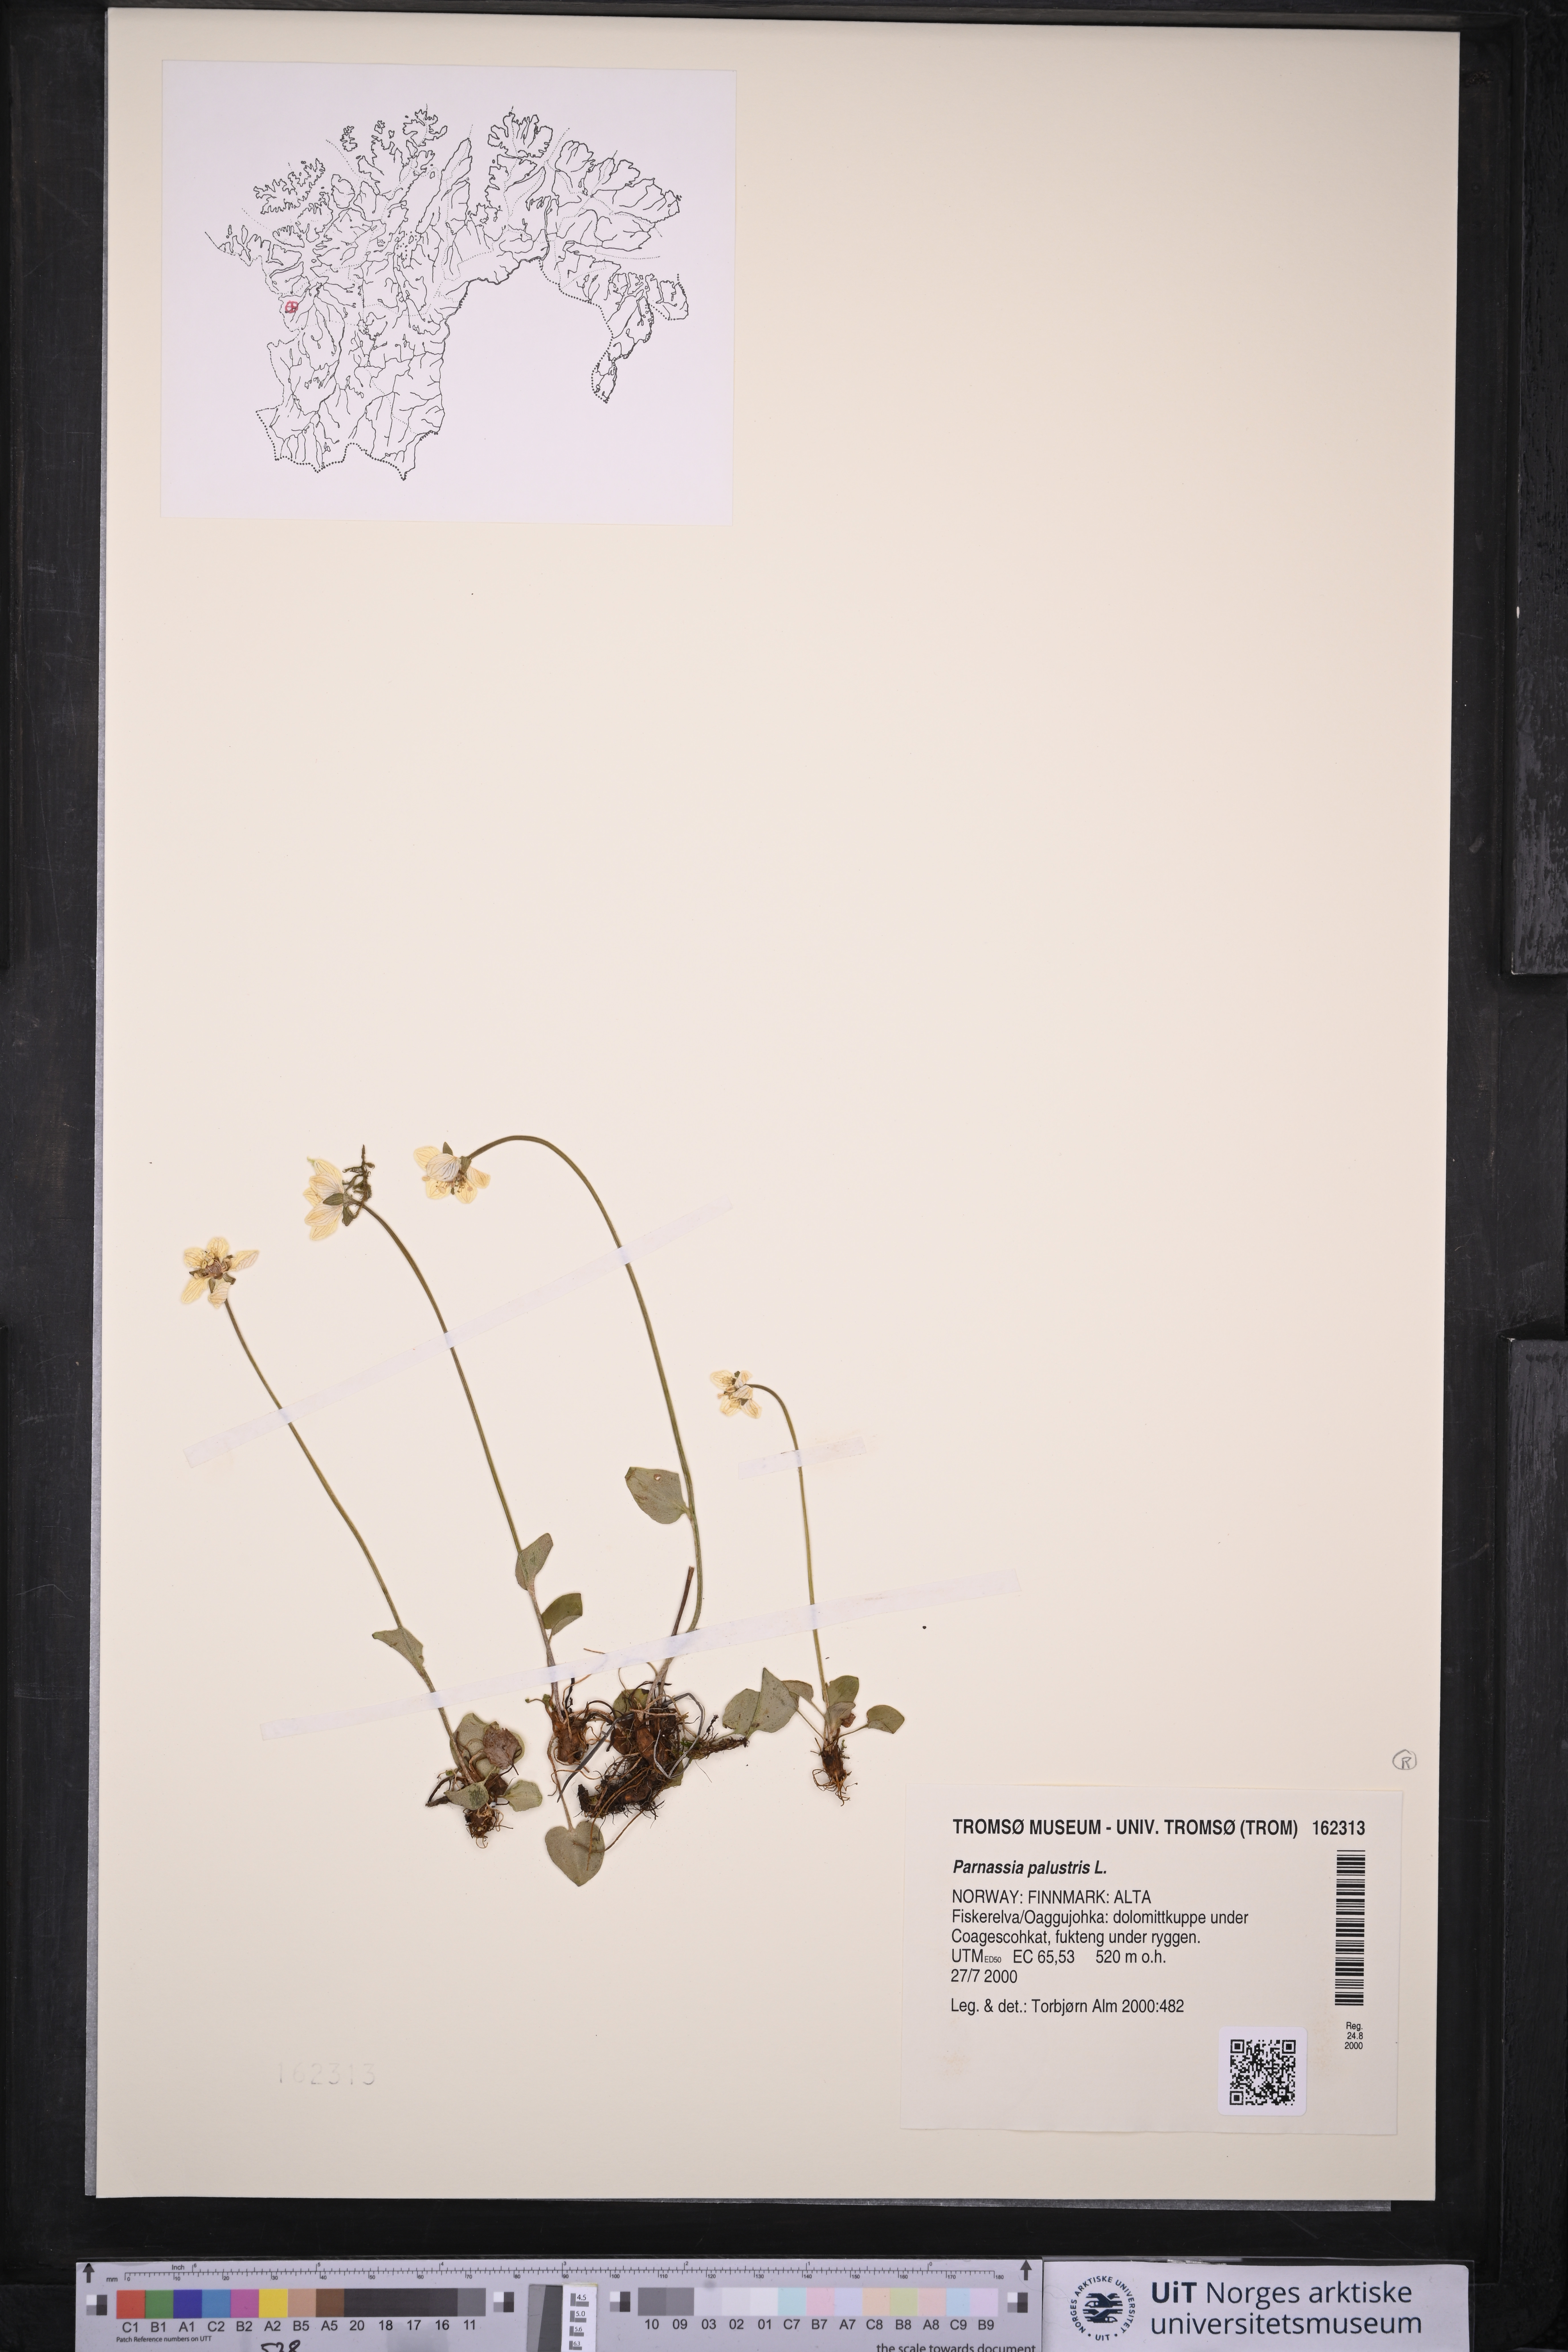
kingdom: Plantae
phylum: Tracheophyta
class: Magnoliopsida
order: Celastrales
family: Parnassiaceae
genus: Parnassia
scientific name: Parnassia palustris
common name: Grass-of-parnassus
